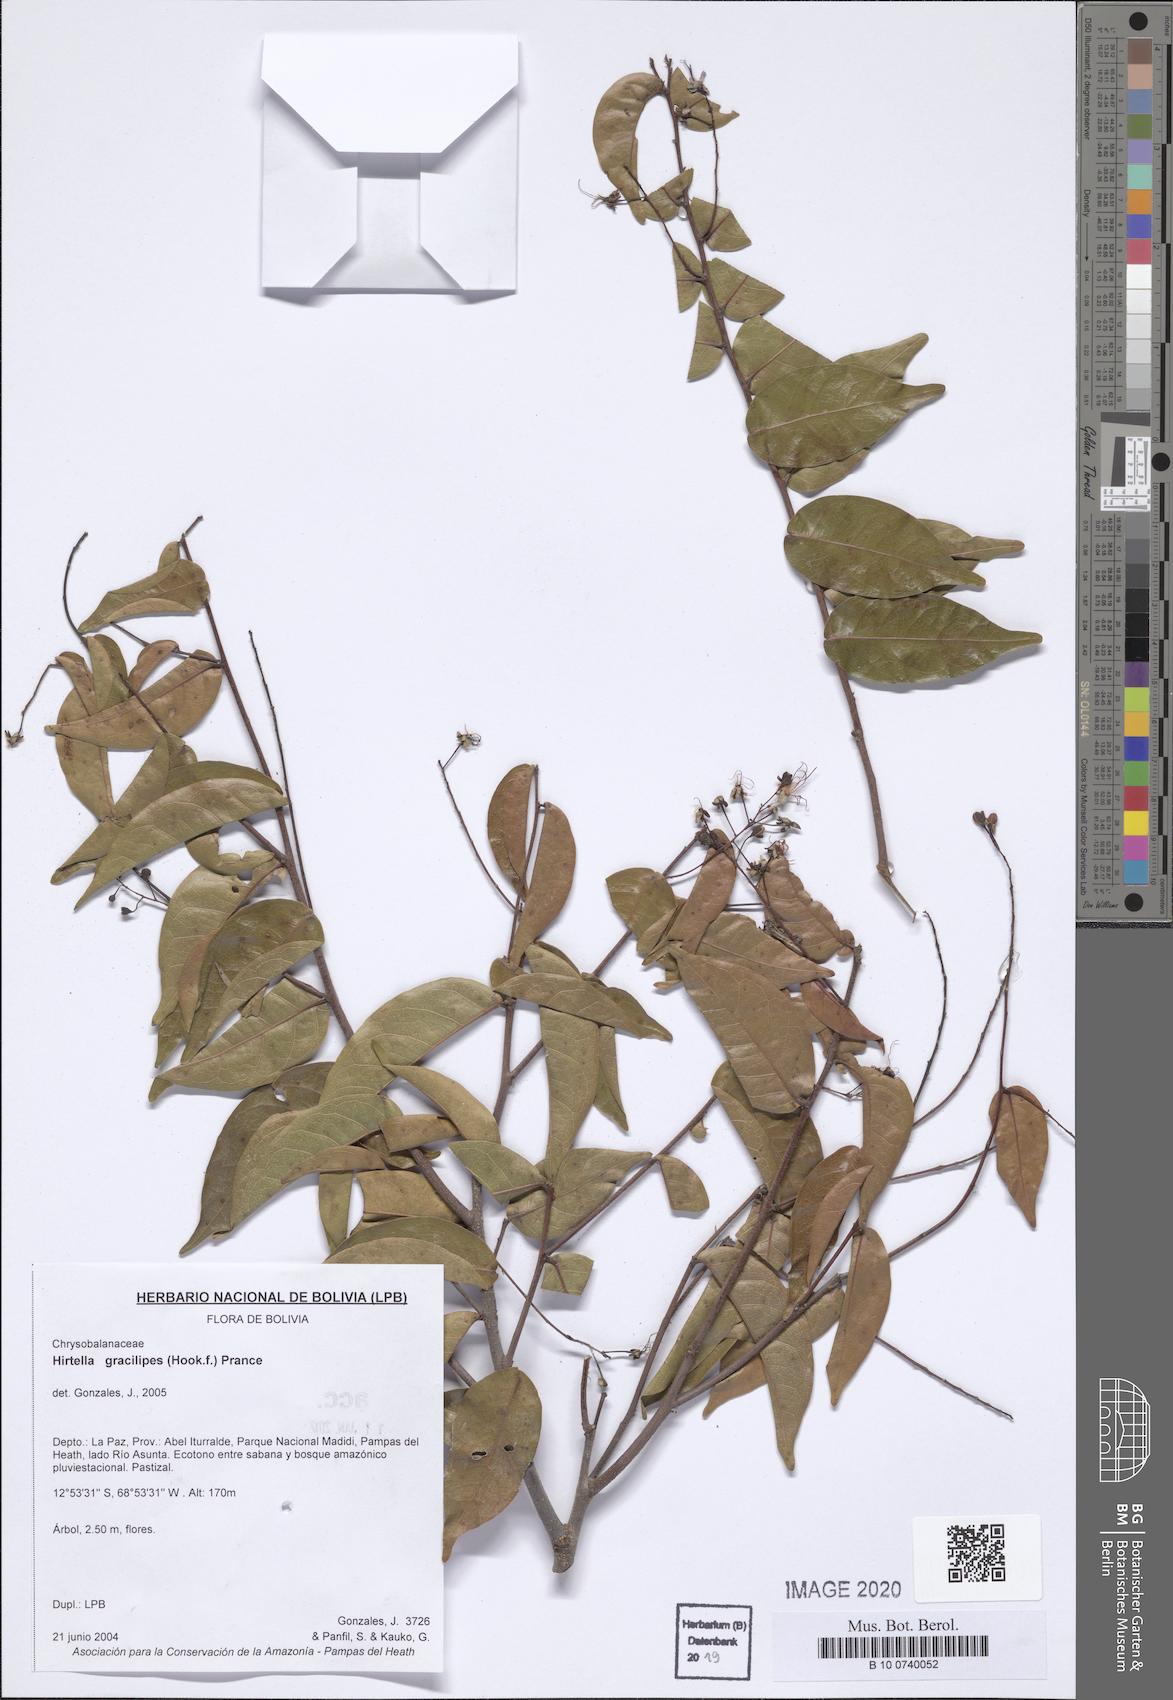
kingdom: Plantae
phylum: Tracheophyta
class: Magnoliopsida
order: Malpighiales
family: Chrysobalanaceae
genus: Hirtella
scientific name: Hirtella gracilipes
